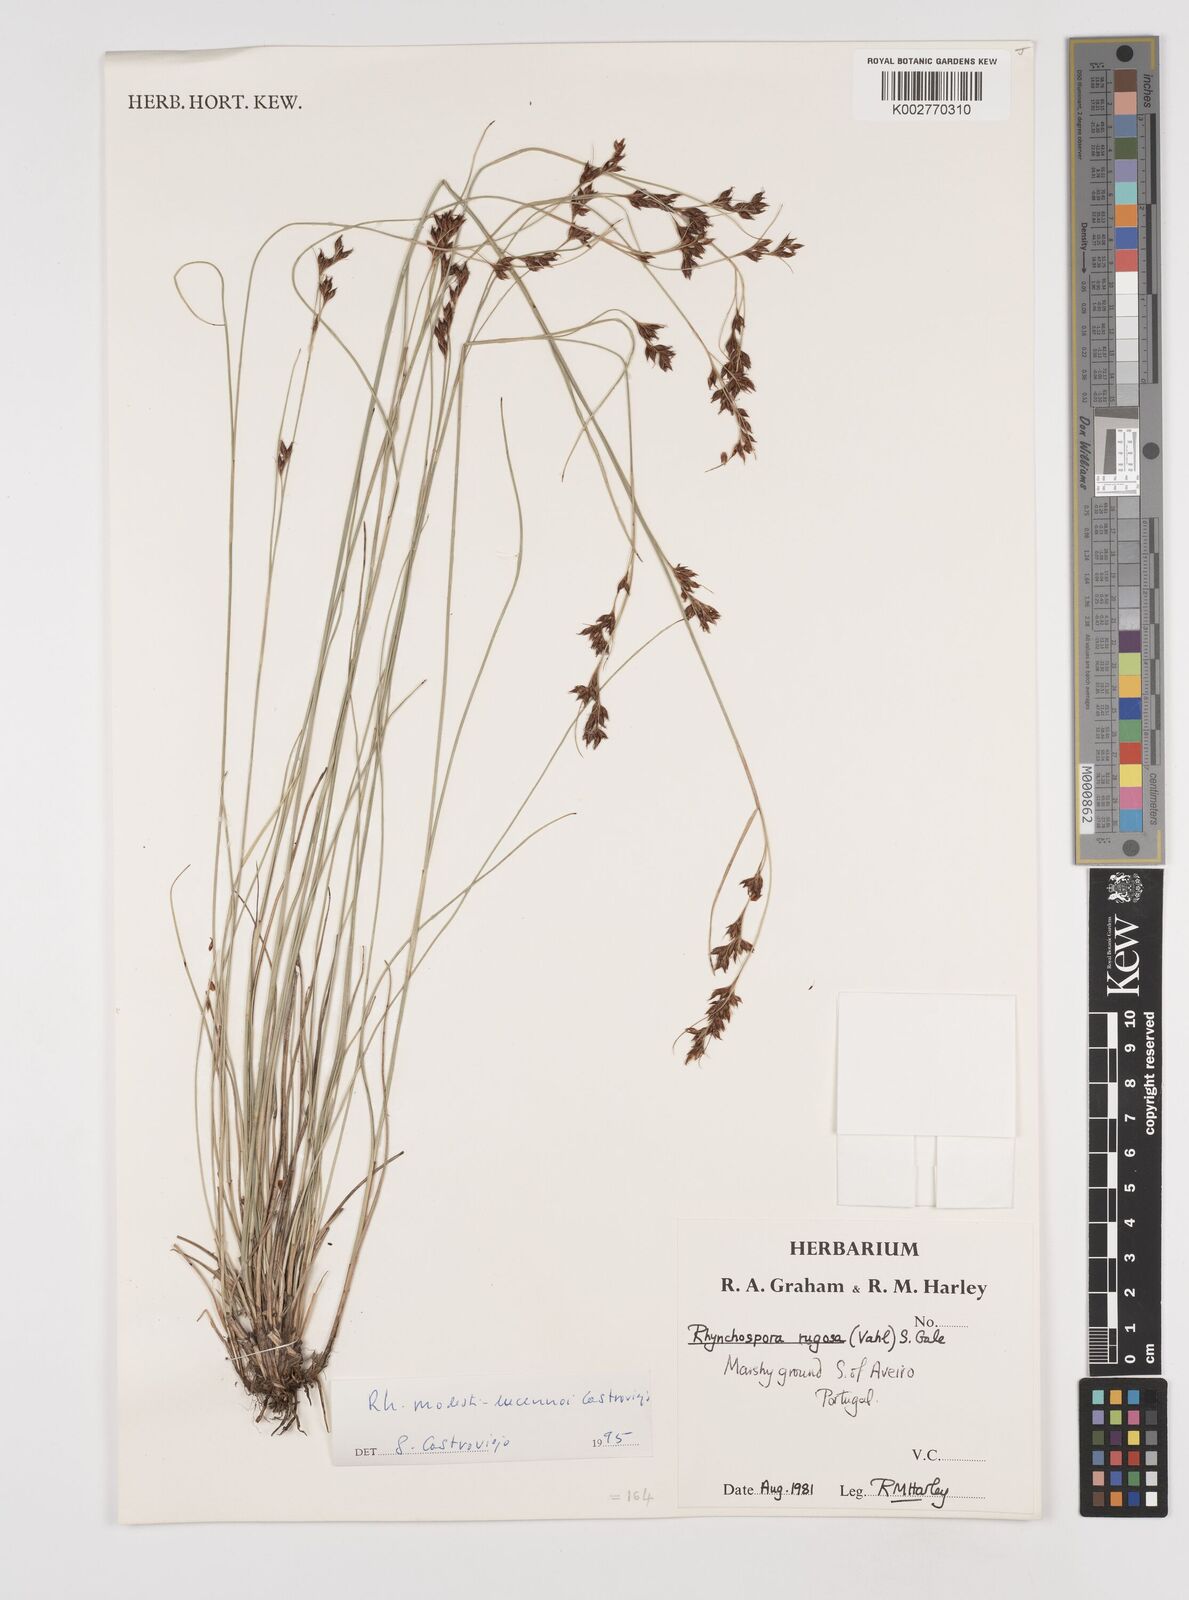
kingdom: Plantae
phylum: Tracheophyta
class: Liliopsida
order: Poales
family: Cyperaceae
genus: Rhynchospora
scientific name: Rhynchospora modesti-lucennoi
